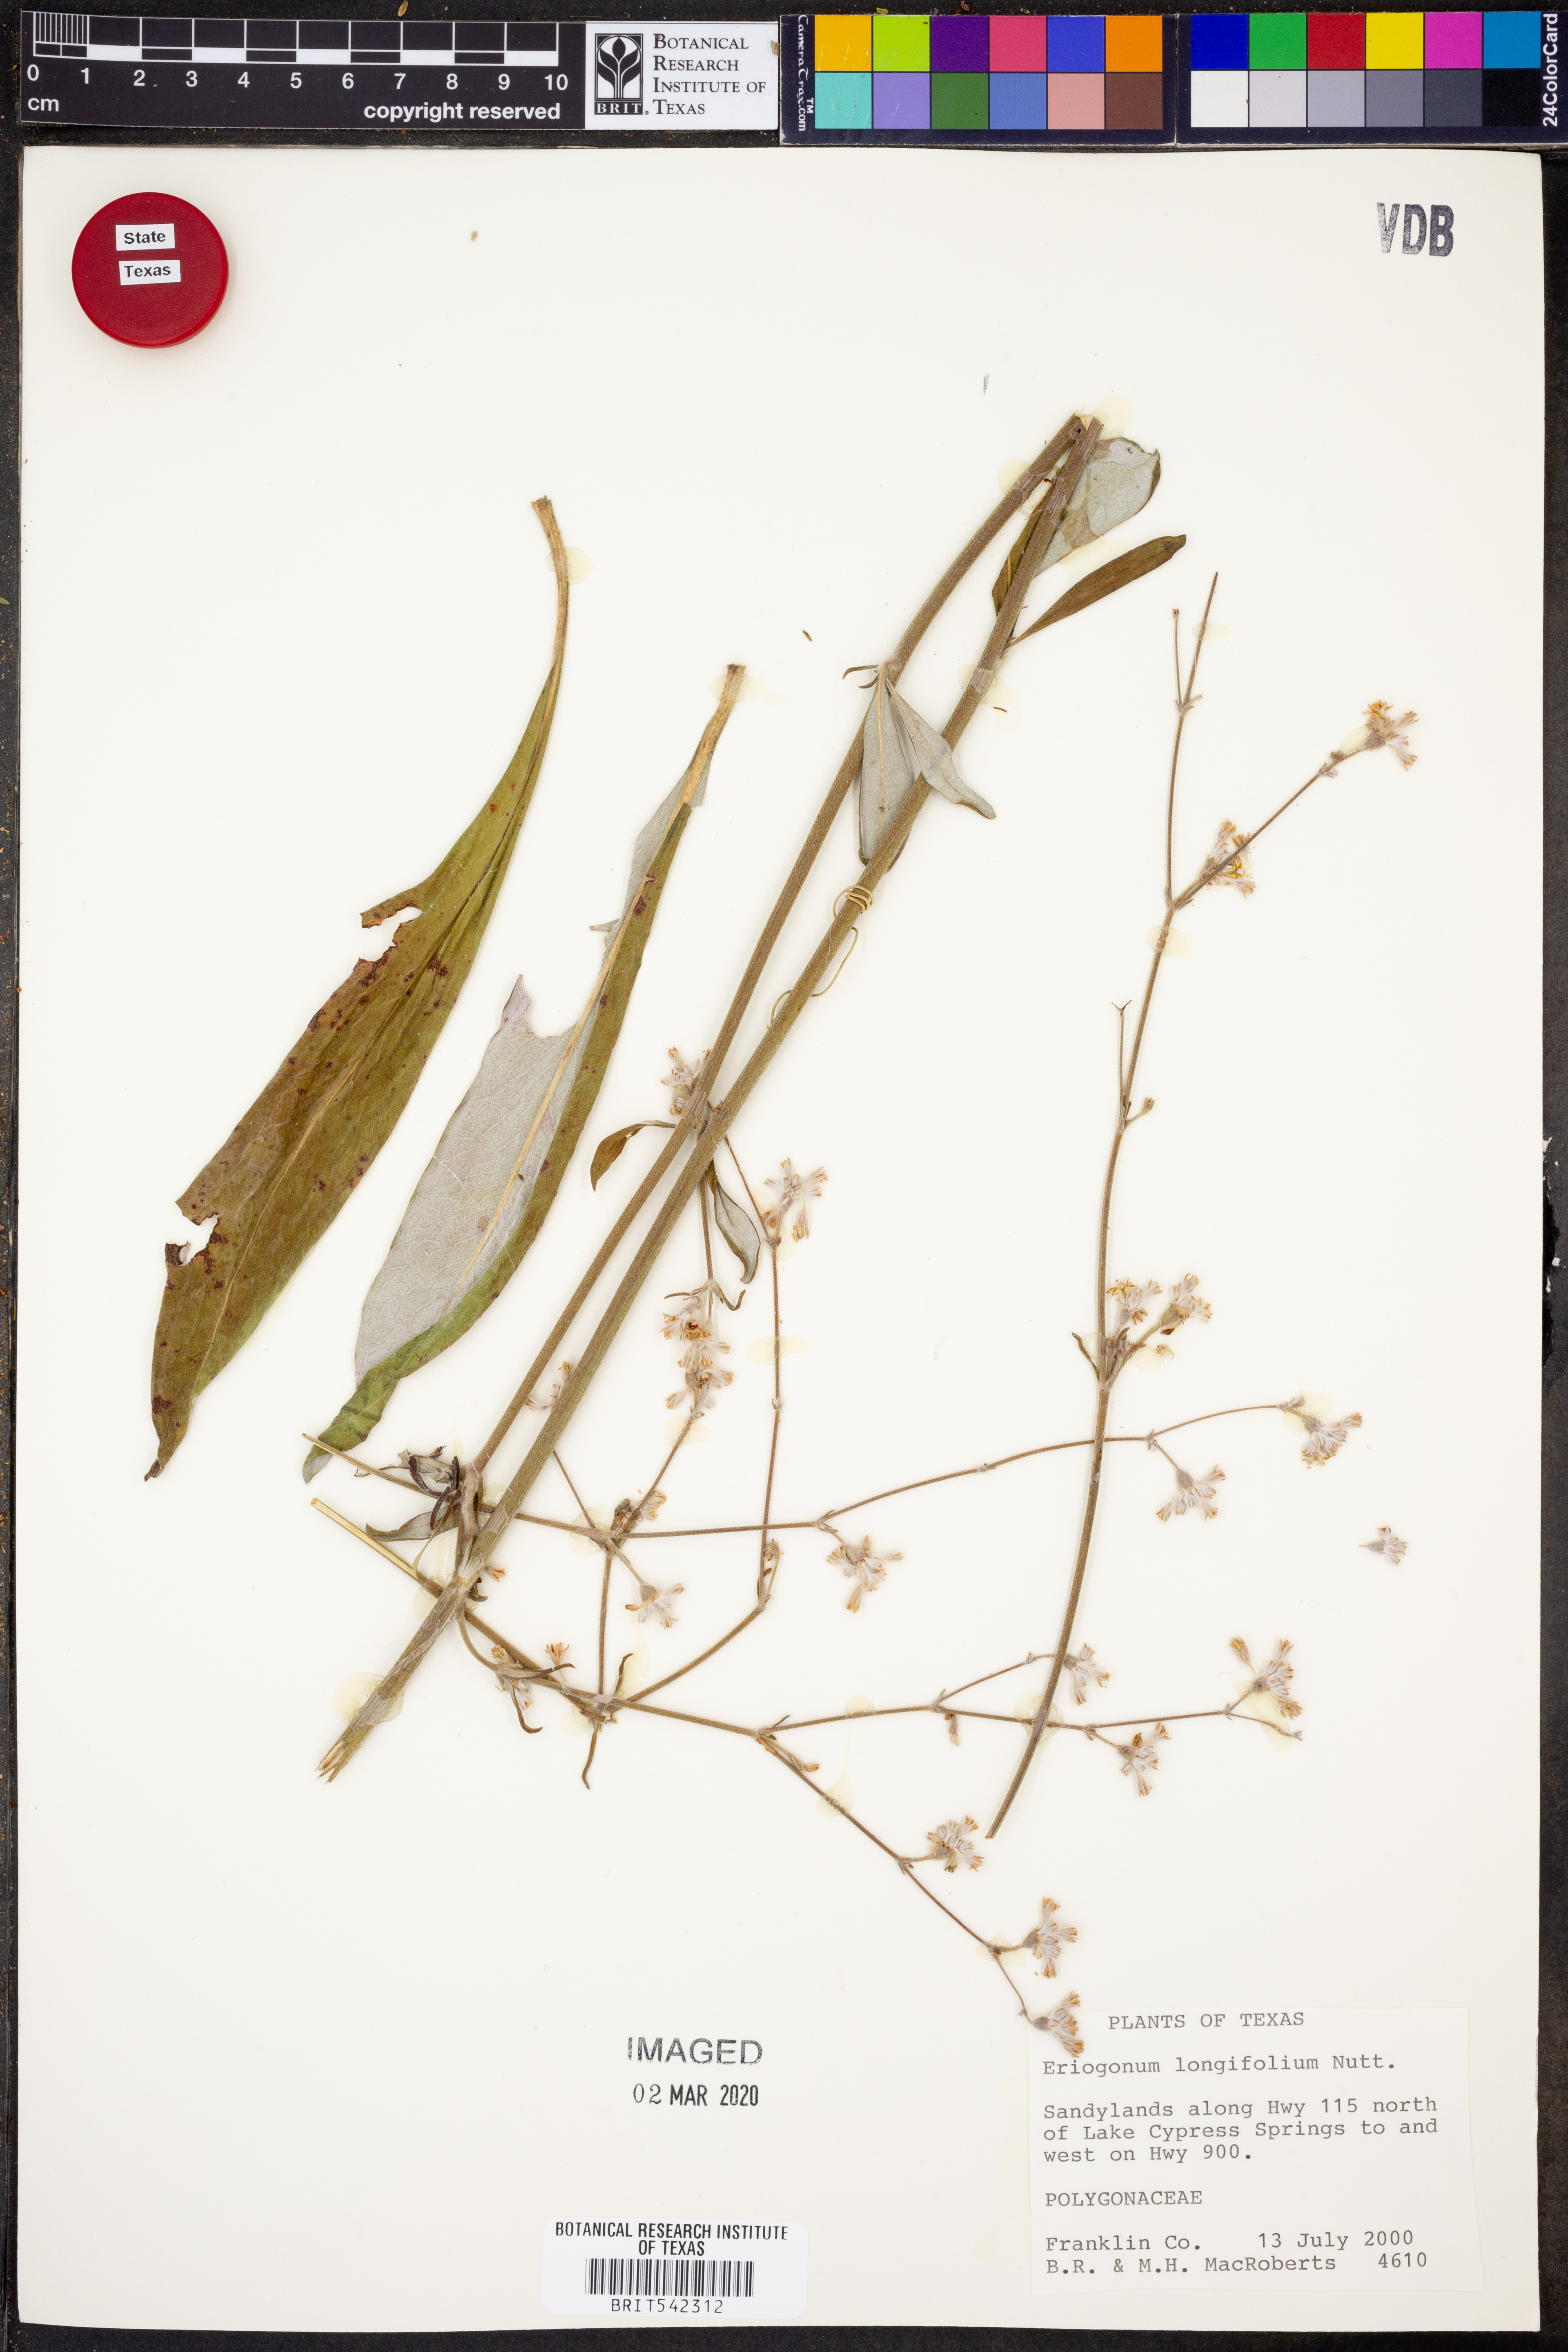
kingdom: Plantae
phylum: Tracheophyta
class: Magnoliopsida
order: Caryophyllales
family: Polygonaceae
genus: Eriogonum
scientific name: Eriogonum longifolium
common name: Longleaf wild buckwheat
